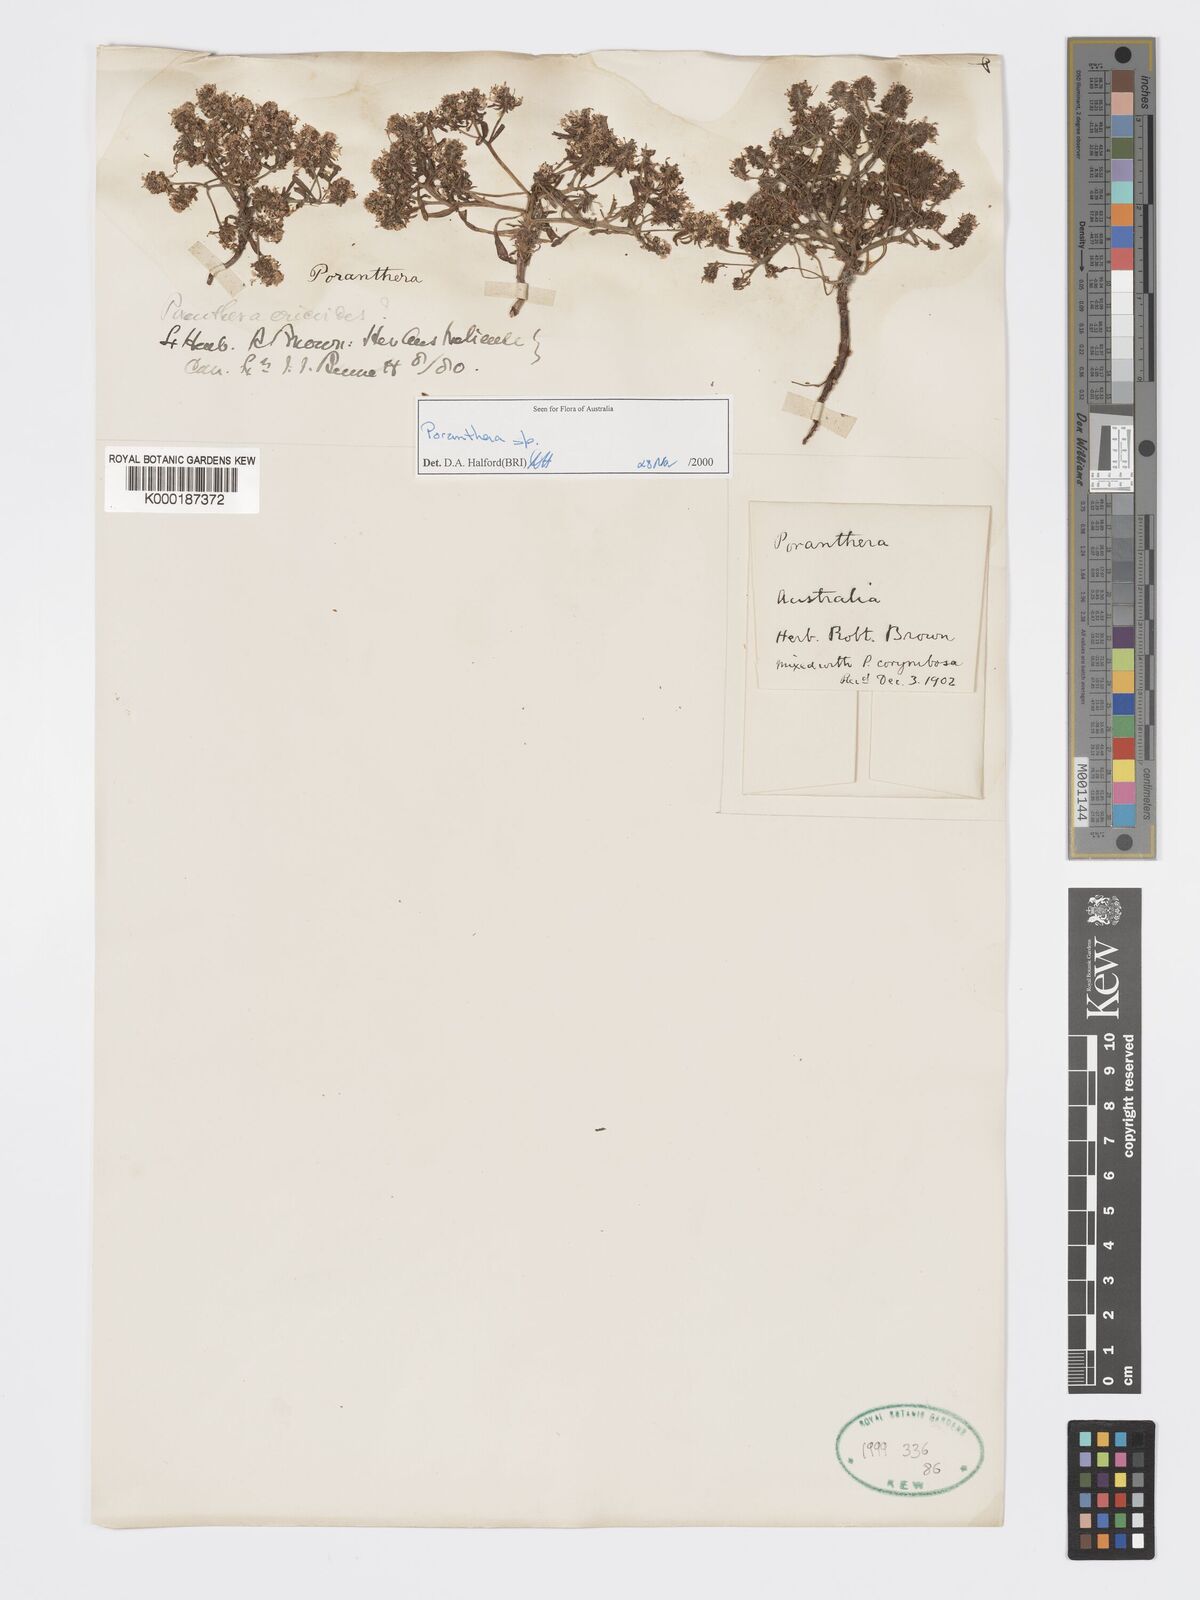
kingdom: Plantae
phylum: Tracheophyta
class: Magnoliopsida
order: Malpighiales
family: Phyllanthaceae
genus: Poranthera
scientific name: Poranthera
